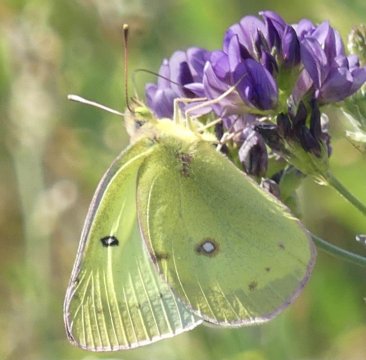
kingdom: Animalia
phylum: Arthropoda
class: Insecta
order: Lepidoptera
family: Pieridae
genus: Colias
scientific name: Colias philodice
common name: Clouded Sulphur
